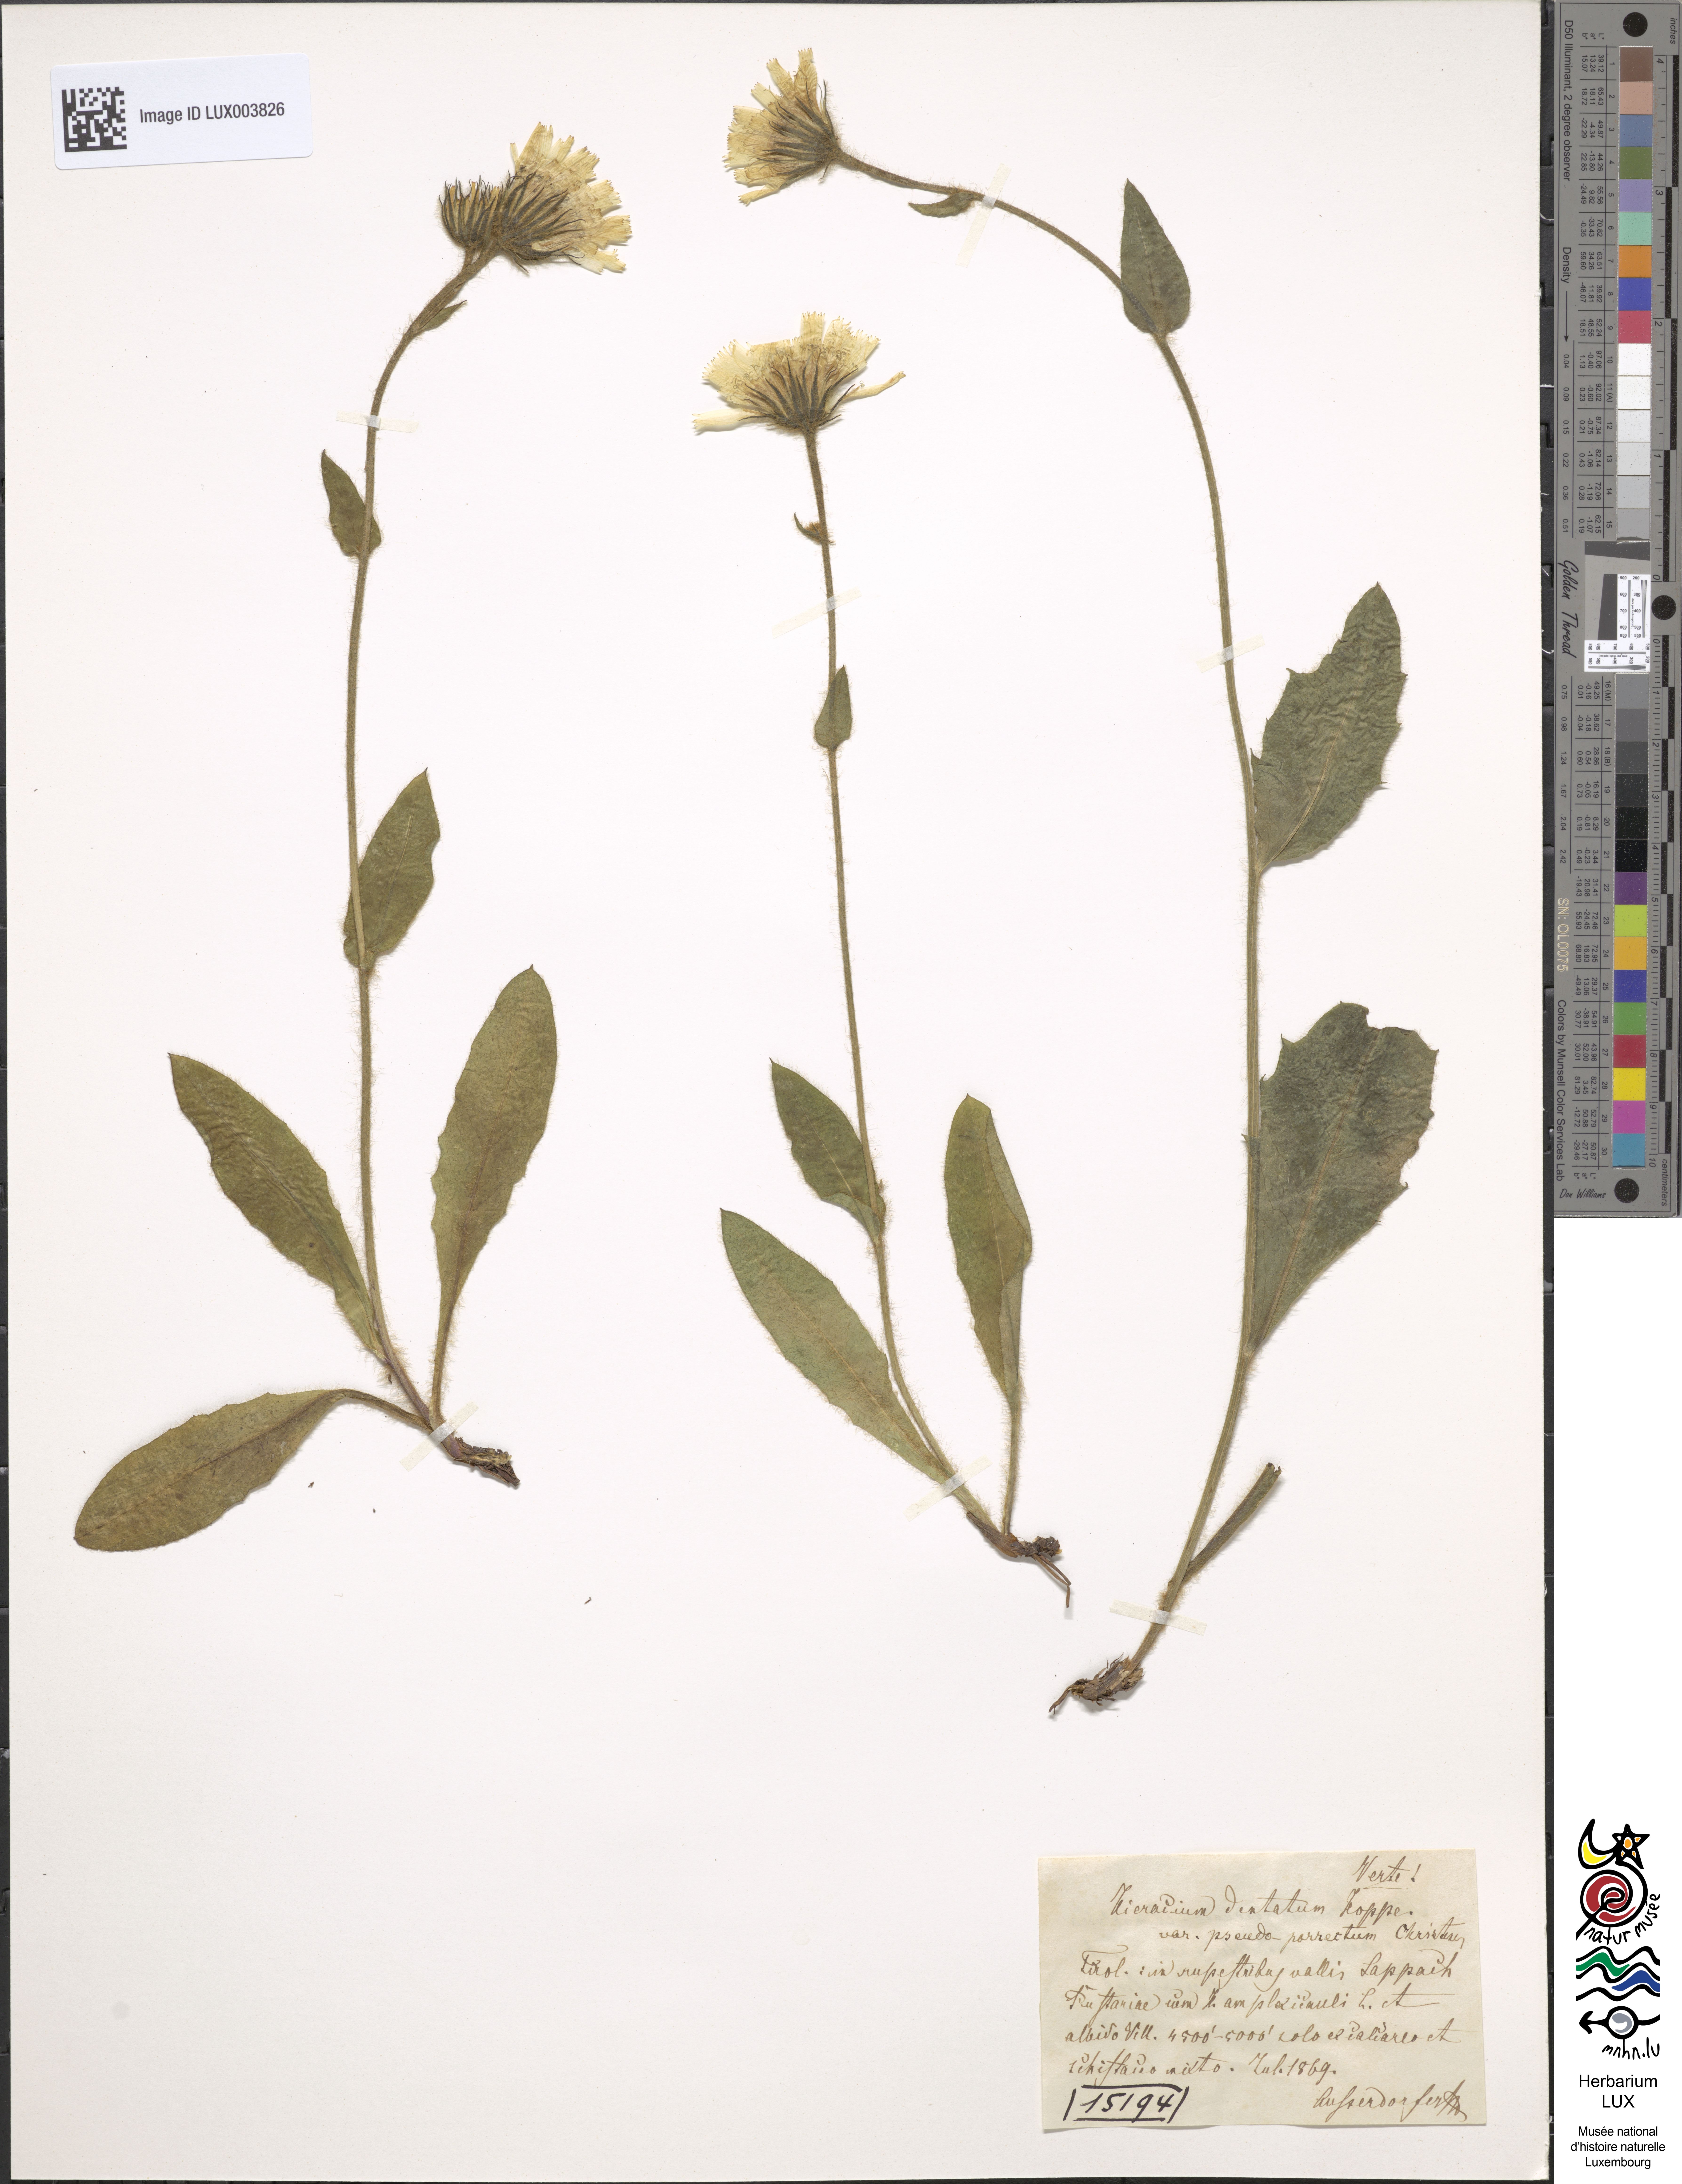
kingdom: Plantae
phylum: Tracheophyta
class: Magnoliopsida
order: Asterales
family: Asteraceae
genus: Hieracium
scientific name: Hieracium dentatum
